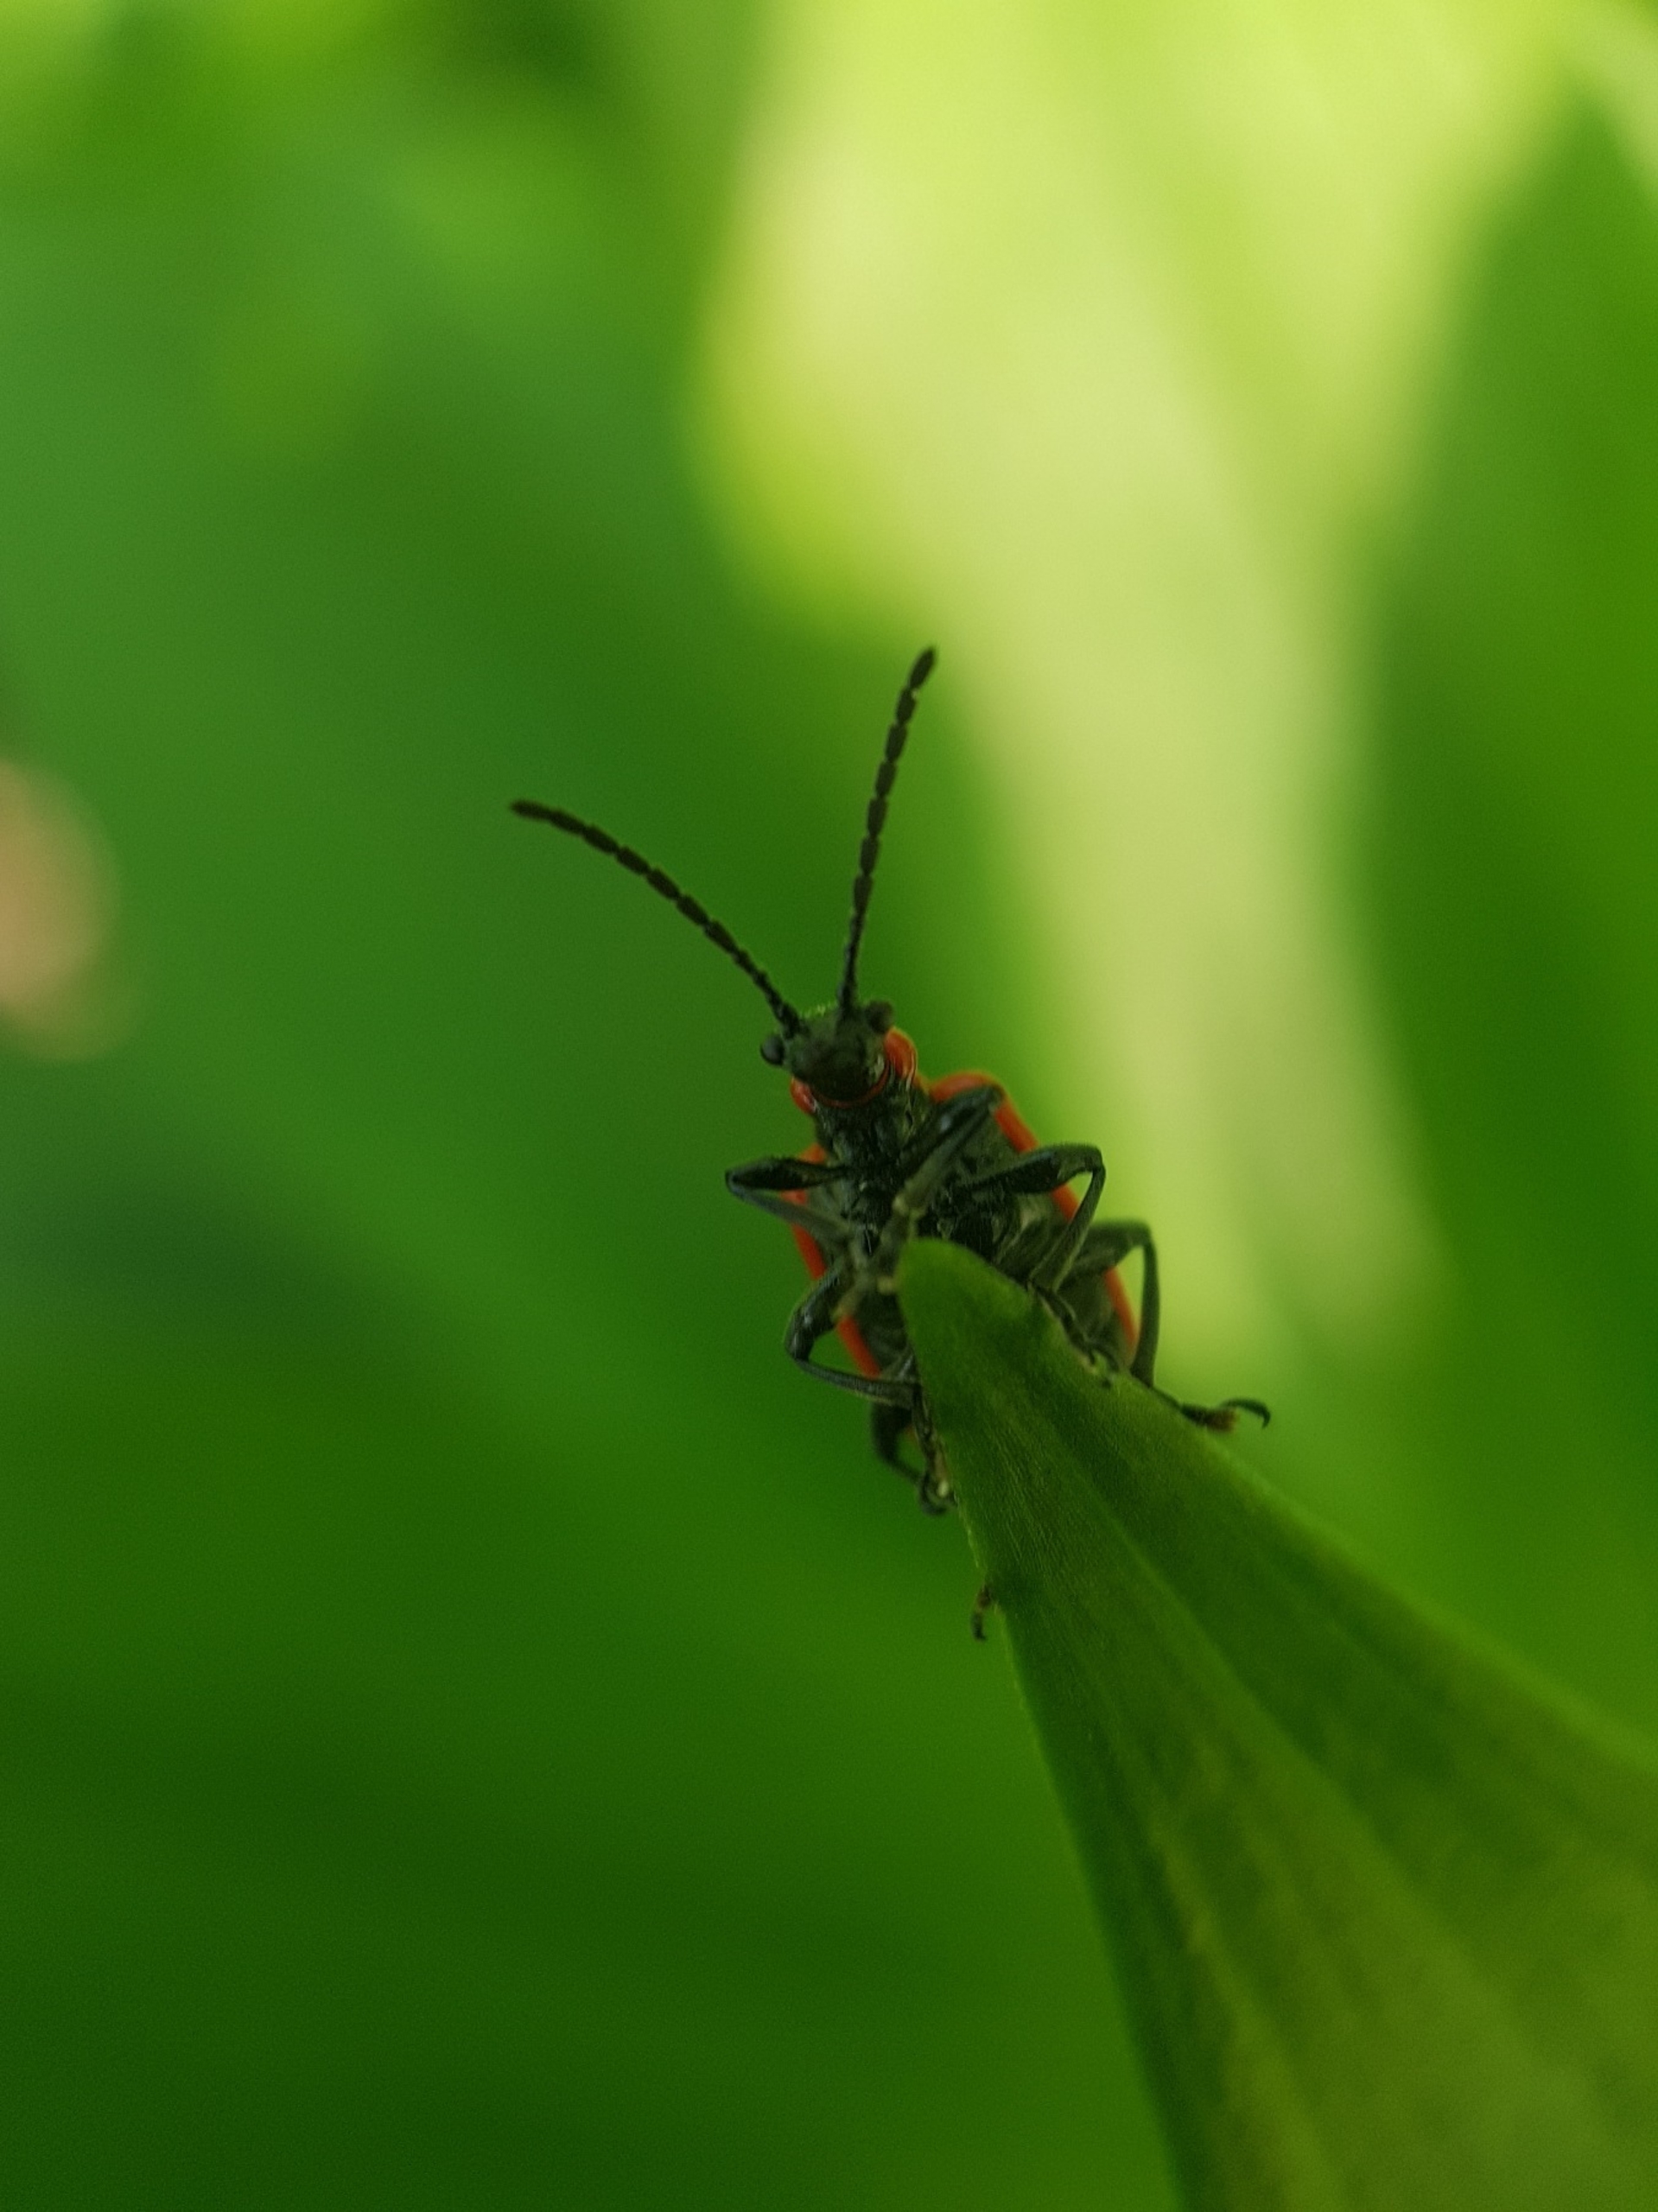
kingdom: Animalia
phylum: Arthropoda
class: Insecta
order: Coleoptera
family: Chrysomelidae
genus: Lilioceris
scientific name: Lilioceris lilii
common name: Liljebille
